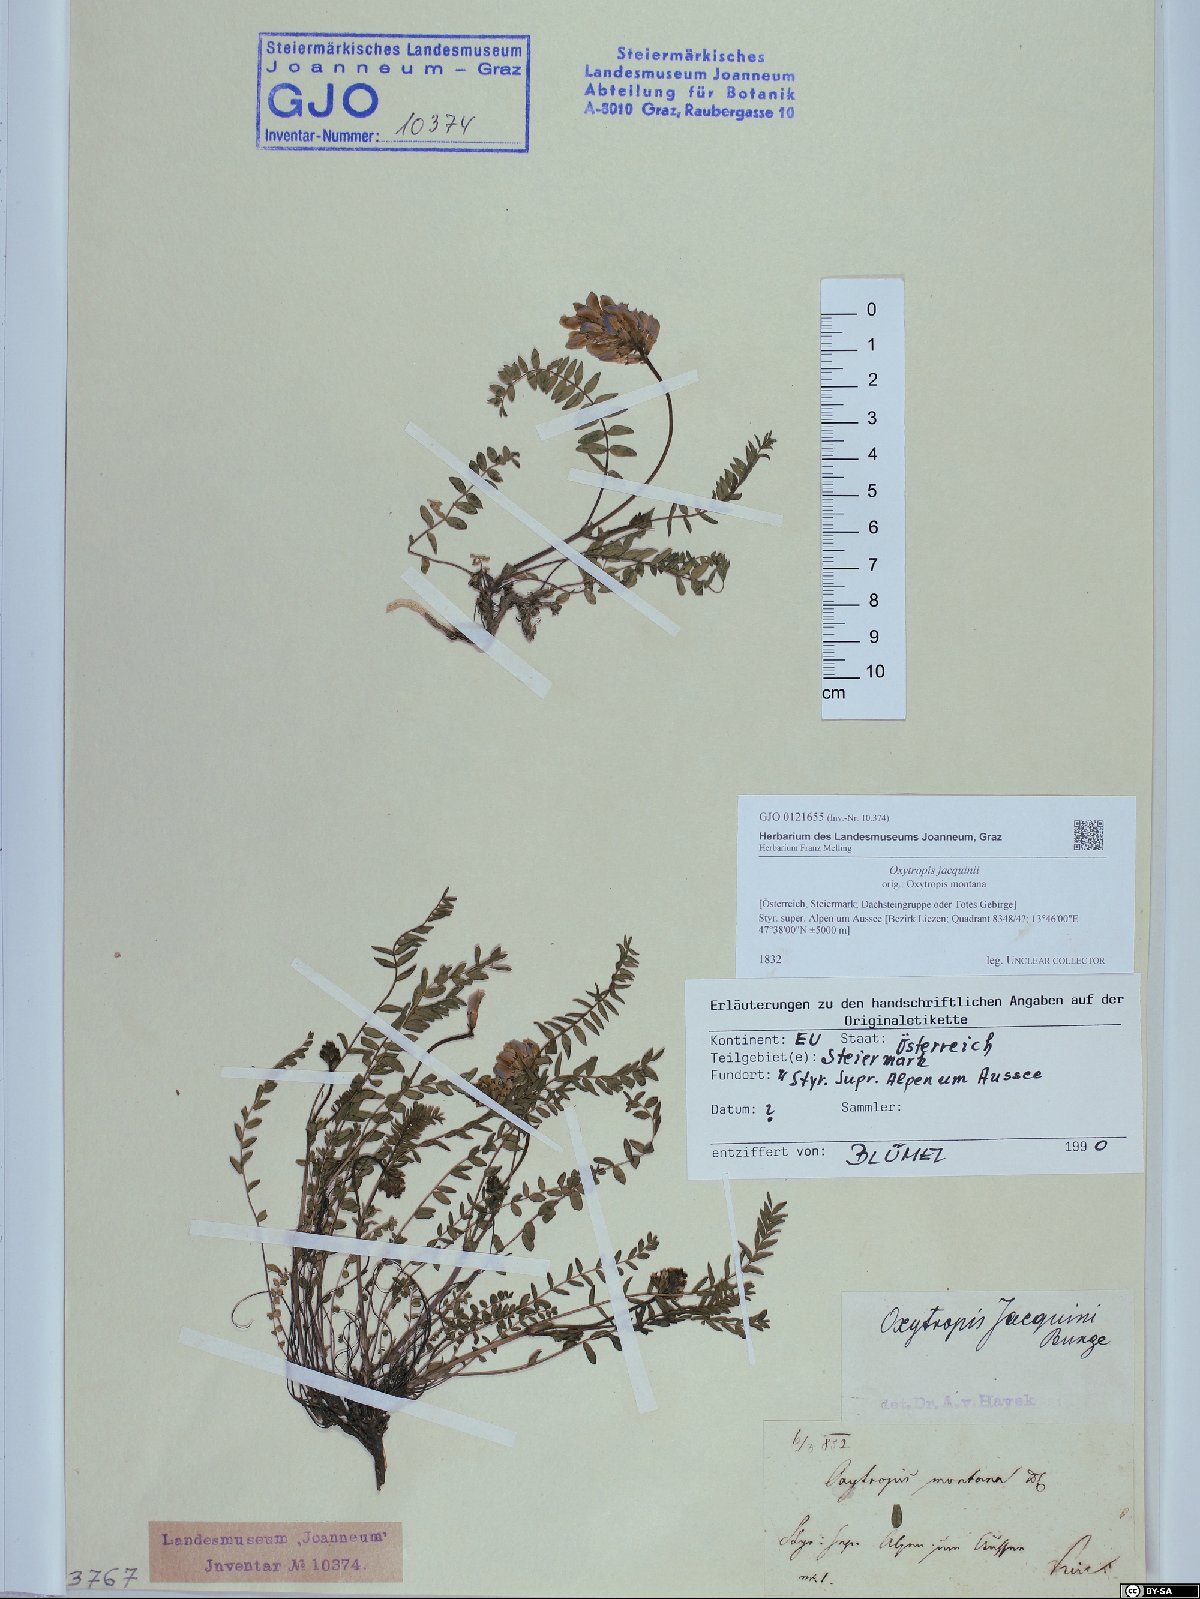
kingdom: Plantae
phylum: Tracheophyta
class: Magnoliopsida
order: Fabales
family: Fabaceae
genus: Oxytropis
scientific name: Oxytropis montana
